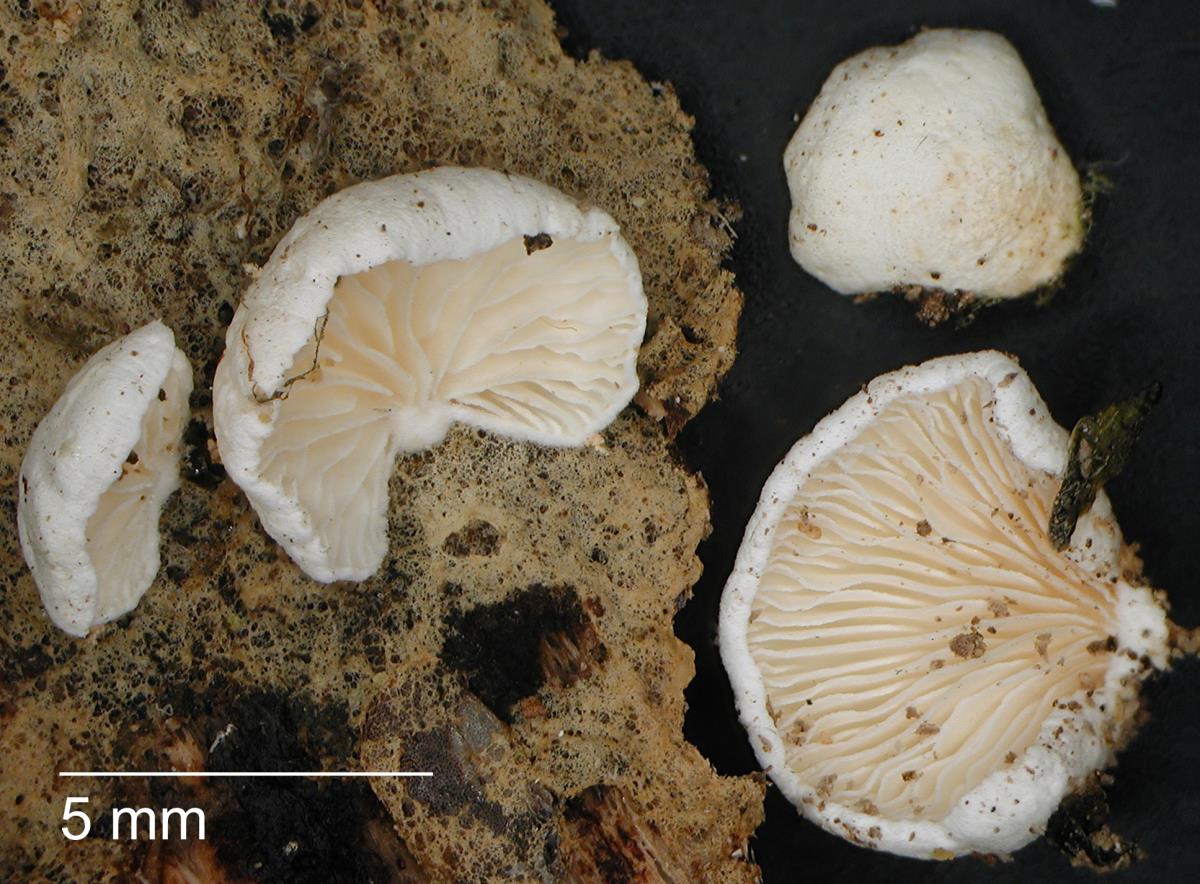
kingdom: Fungi
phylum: Basidiomycota
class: Agaricomycetes
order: Agaricales
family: Cyphellaceae
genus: Cheimonophyllum
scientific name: Cheimonophyllum
